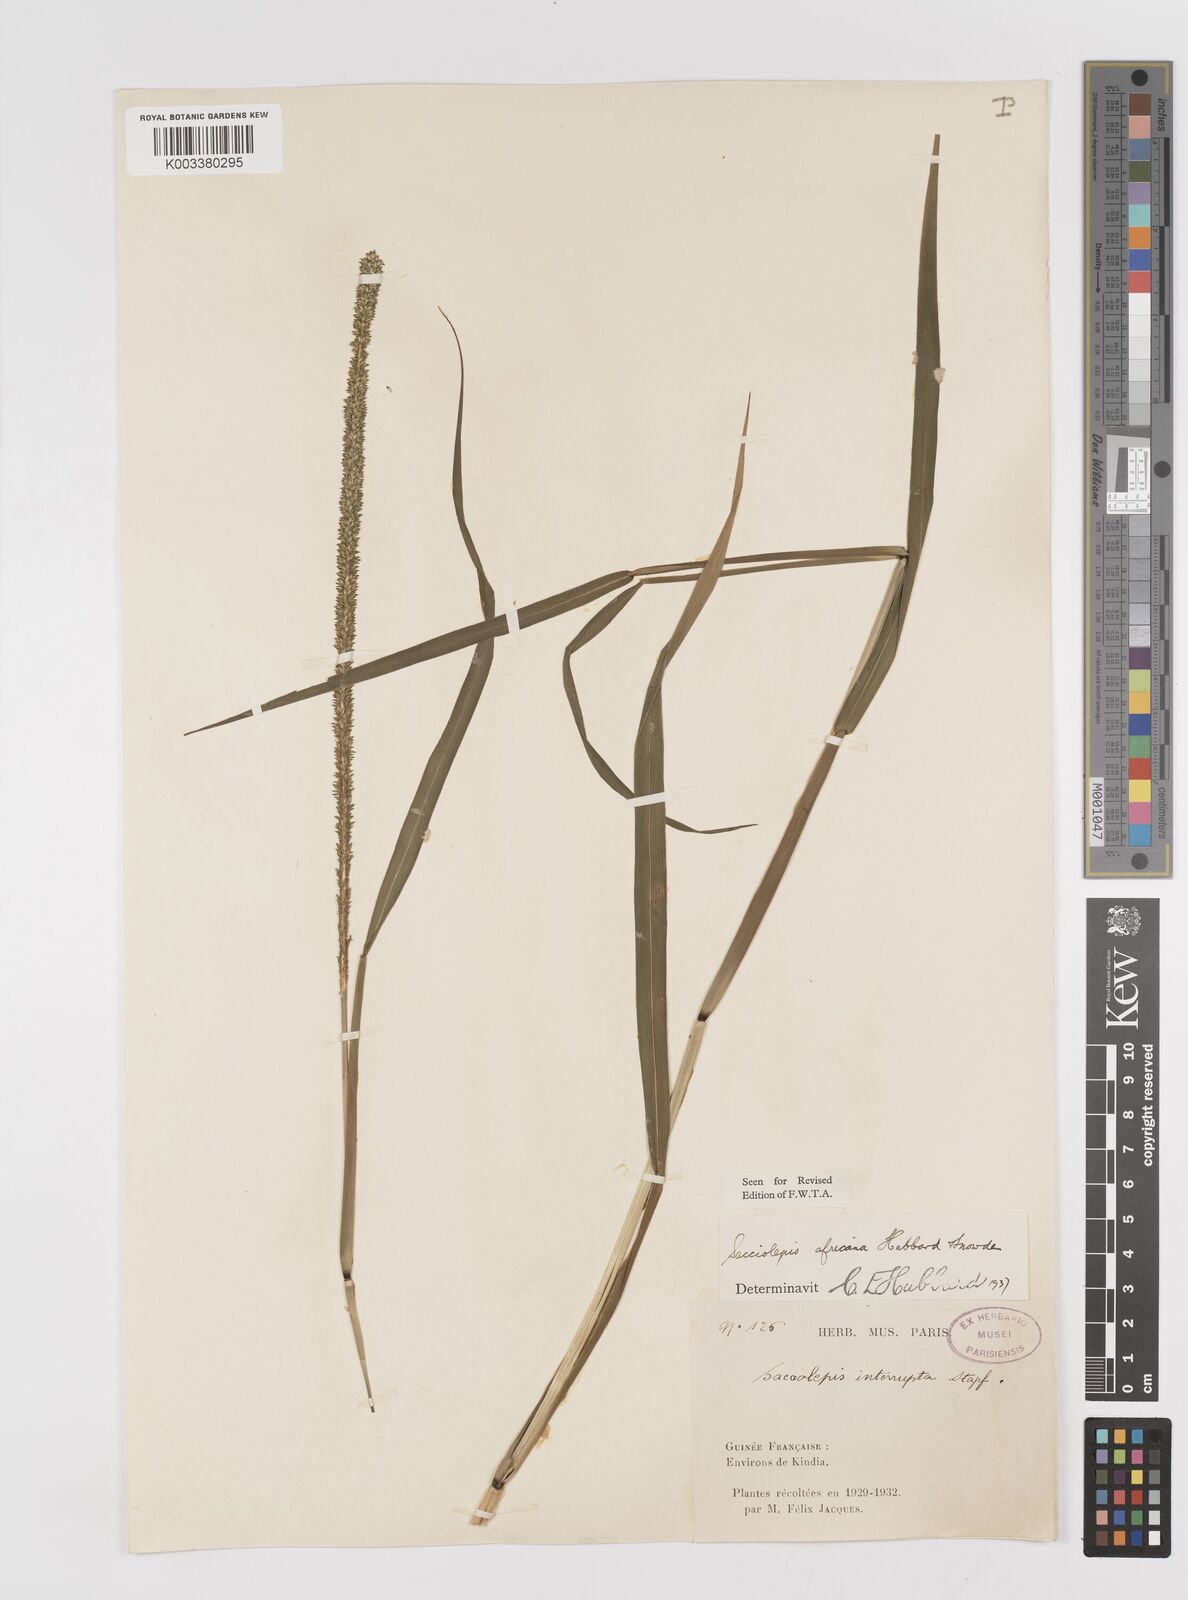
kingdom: Plantae
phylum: Tracheophyta
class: Liliopsida
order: Poales
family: Poaceae
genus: Sacciolepis
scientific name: Sacciolepis africana
